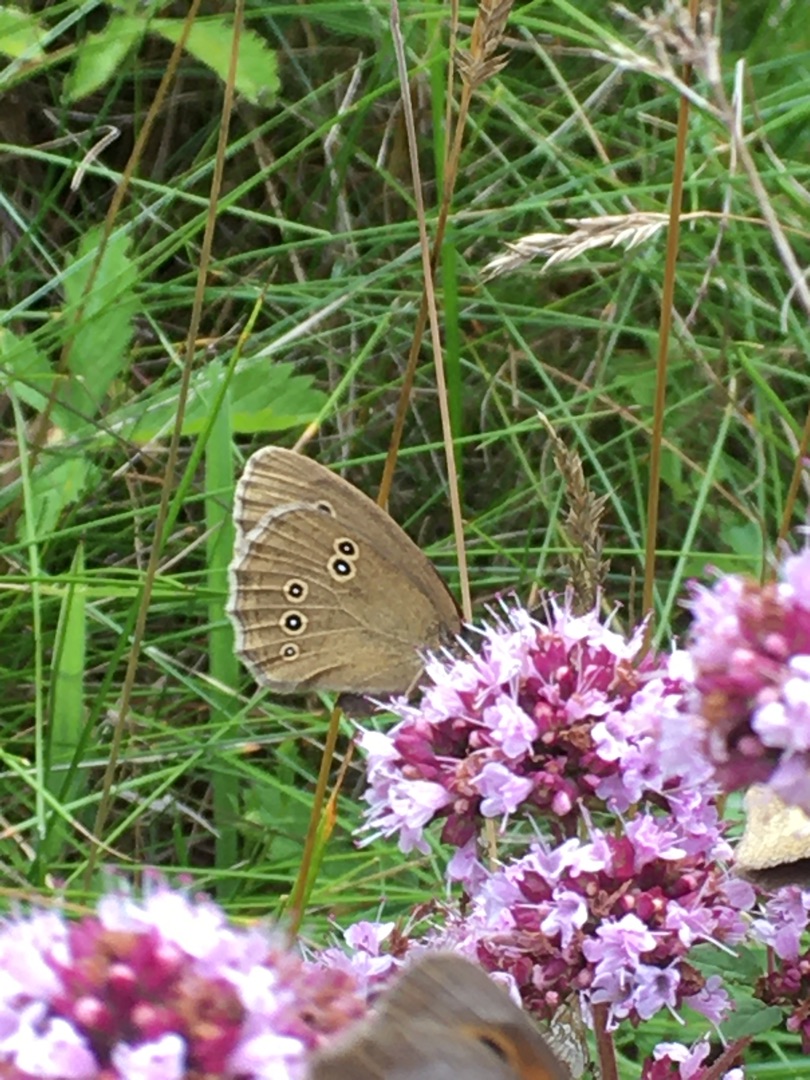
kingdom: Animalia
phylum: Arthropoda
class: Insecta
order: Lepidoptera
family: Nymphalidae
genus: Aphantopus
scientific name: Aphantopus hyperantus
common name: Engrandøje
